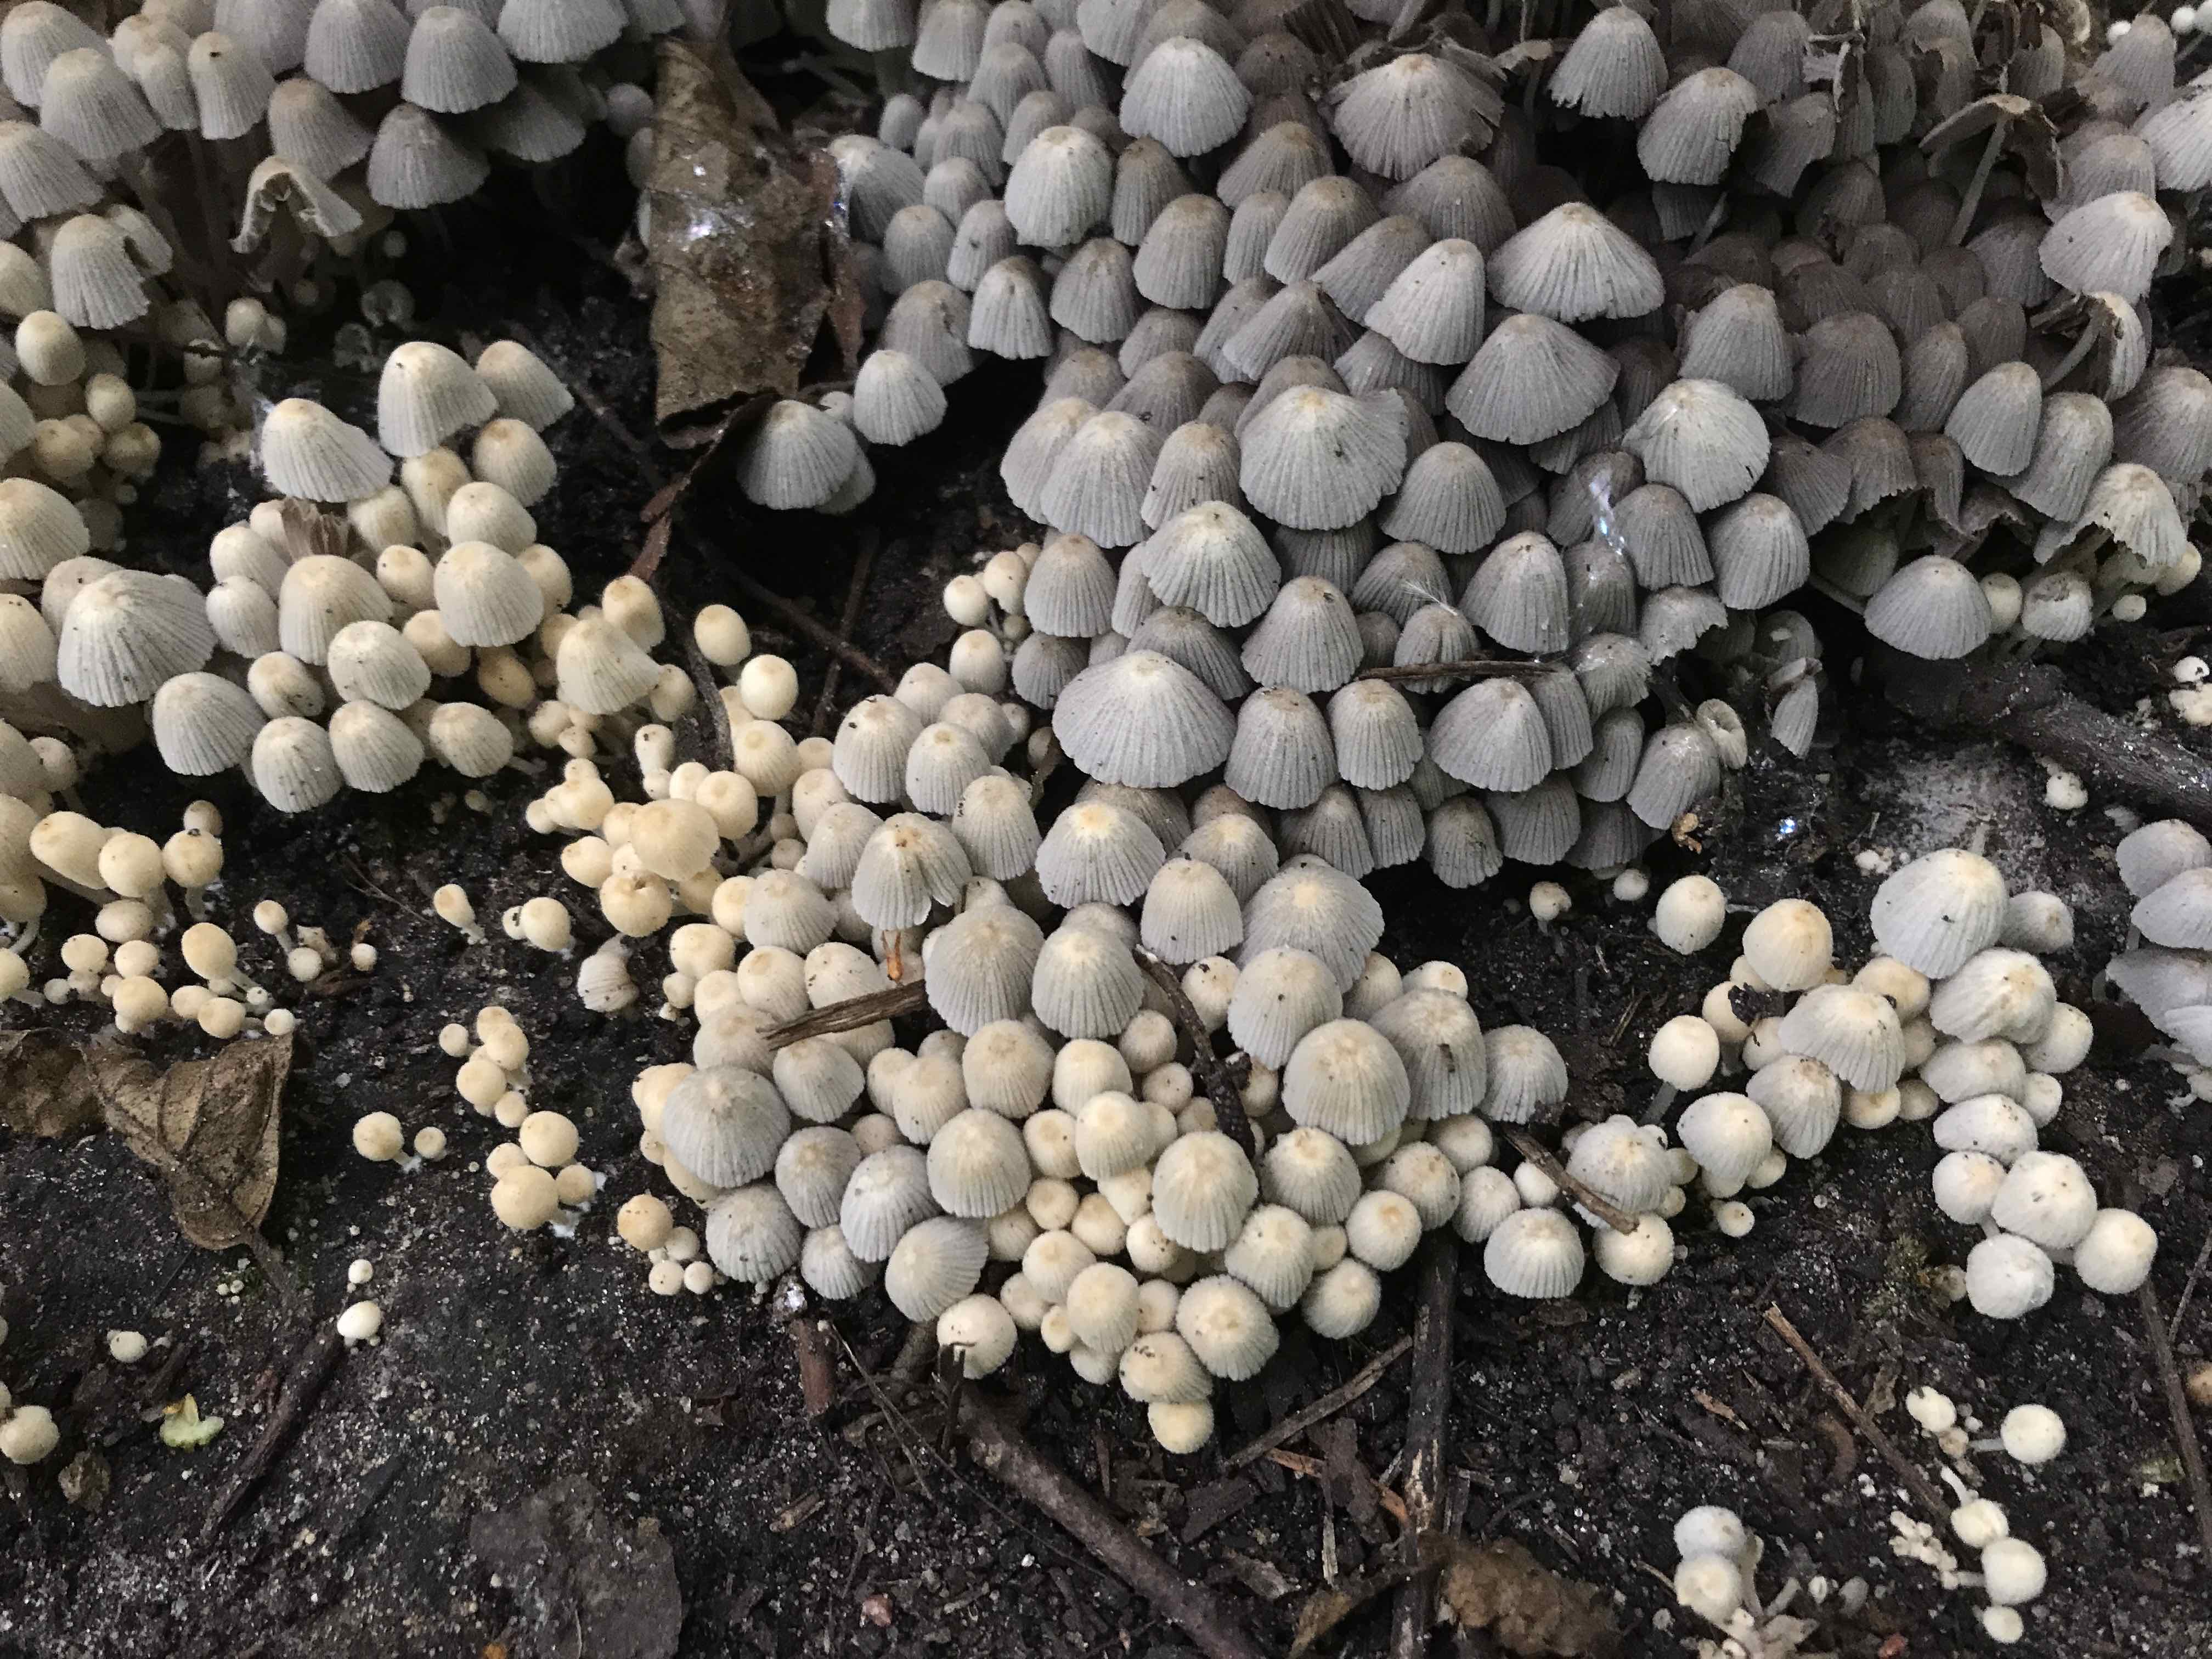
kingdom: Fungi
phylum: Basidiomycota
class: Agaricomycetes
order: Agaricales
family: Psathyrellaceae
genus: Coprinellus
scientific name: Coprinellus disseminatus
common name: bredsået blækhat
